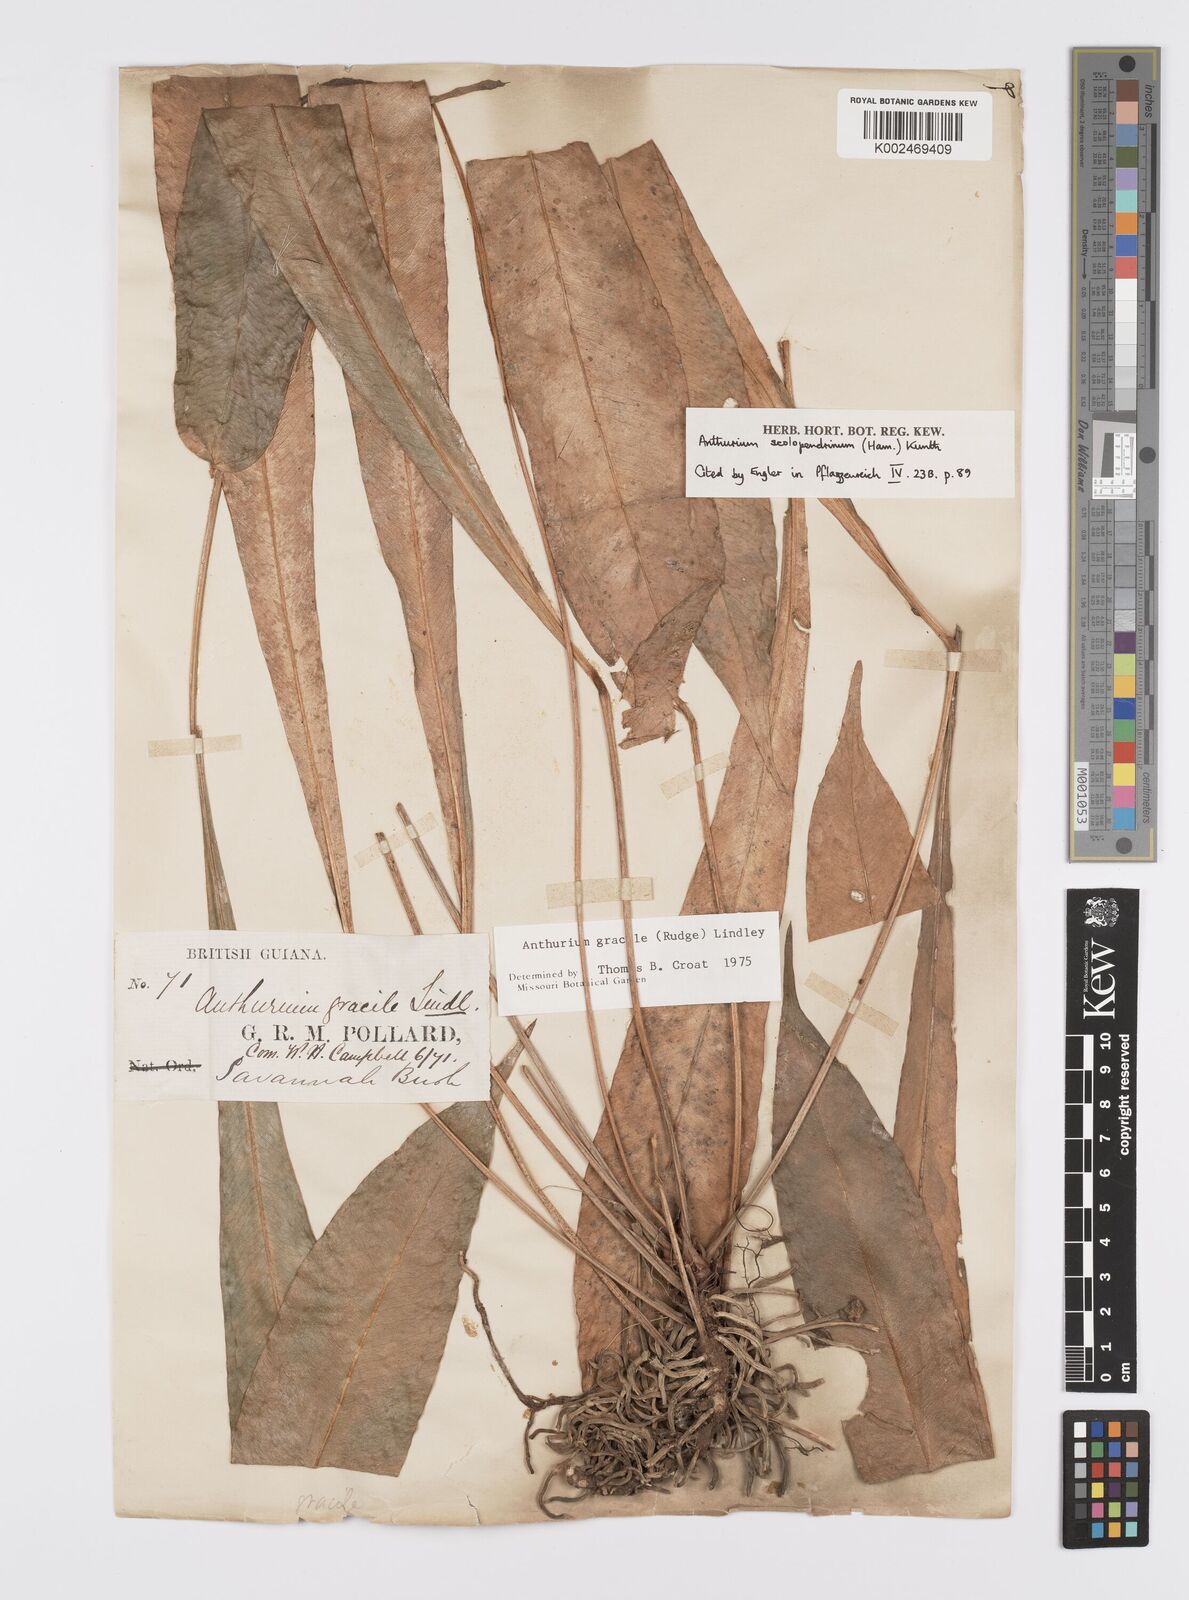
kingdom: Plantae
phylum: Tracheophyta
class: Liliopsida
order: Alismatales
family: Araceae
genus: Anthurium
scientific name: Anthurium gracile
